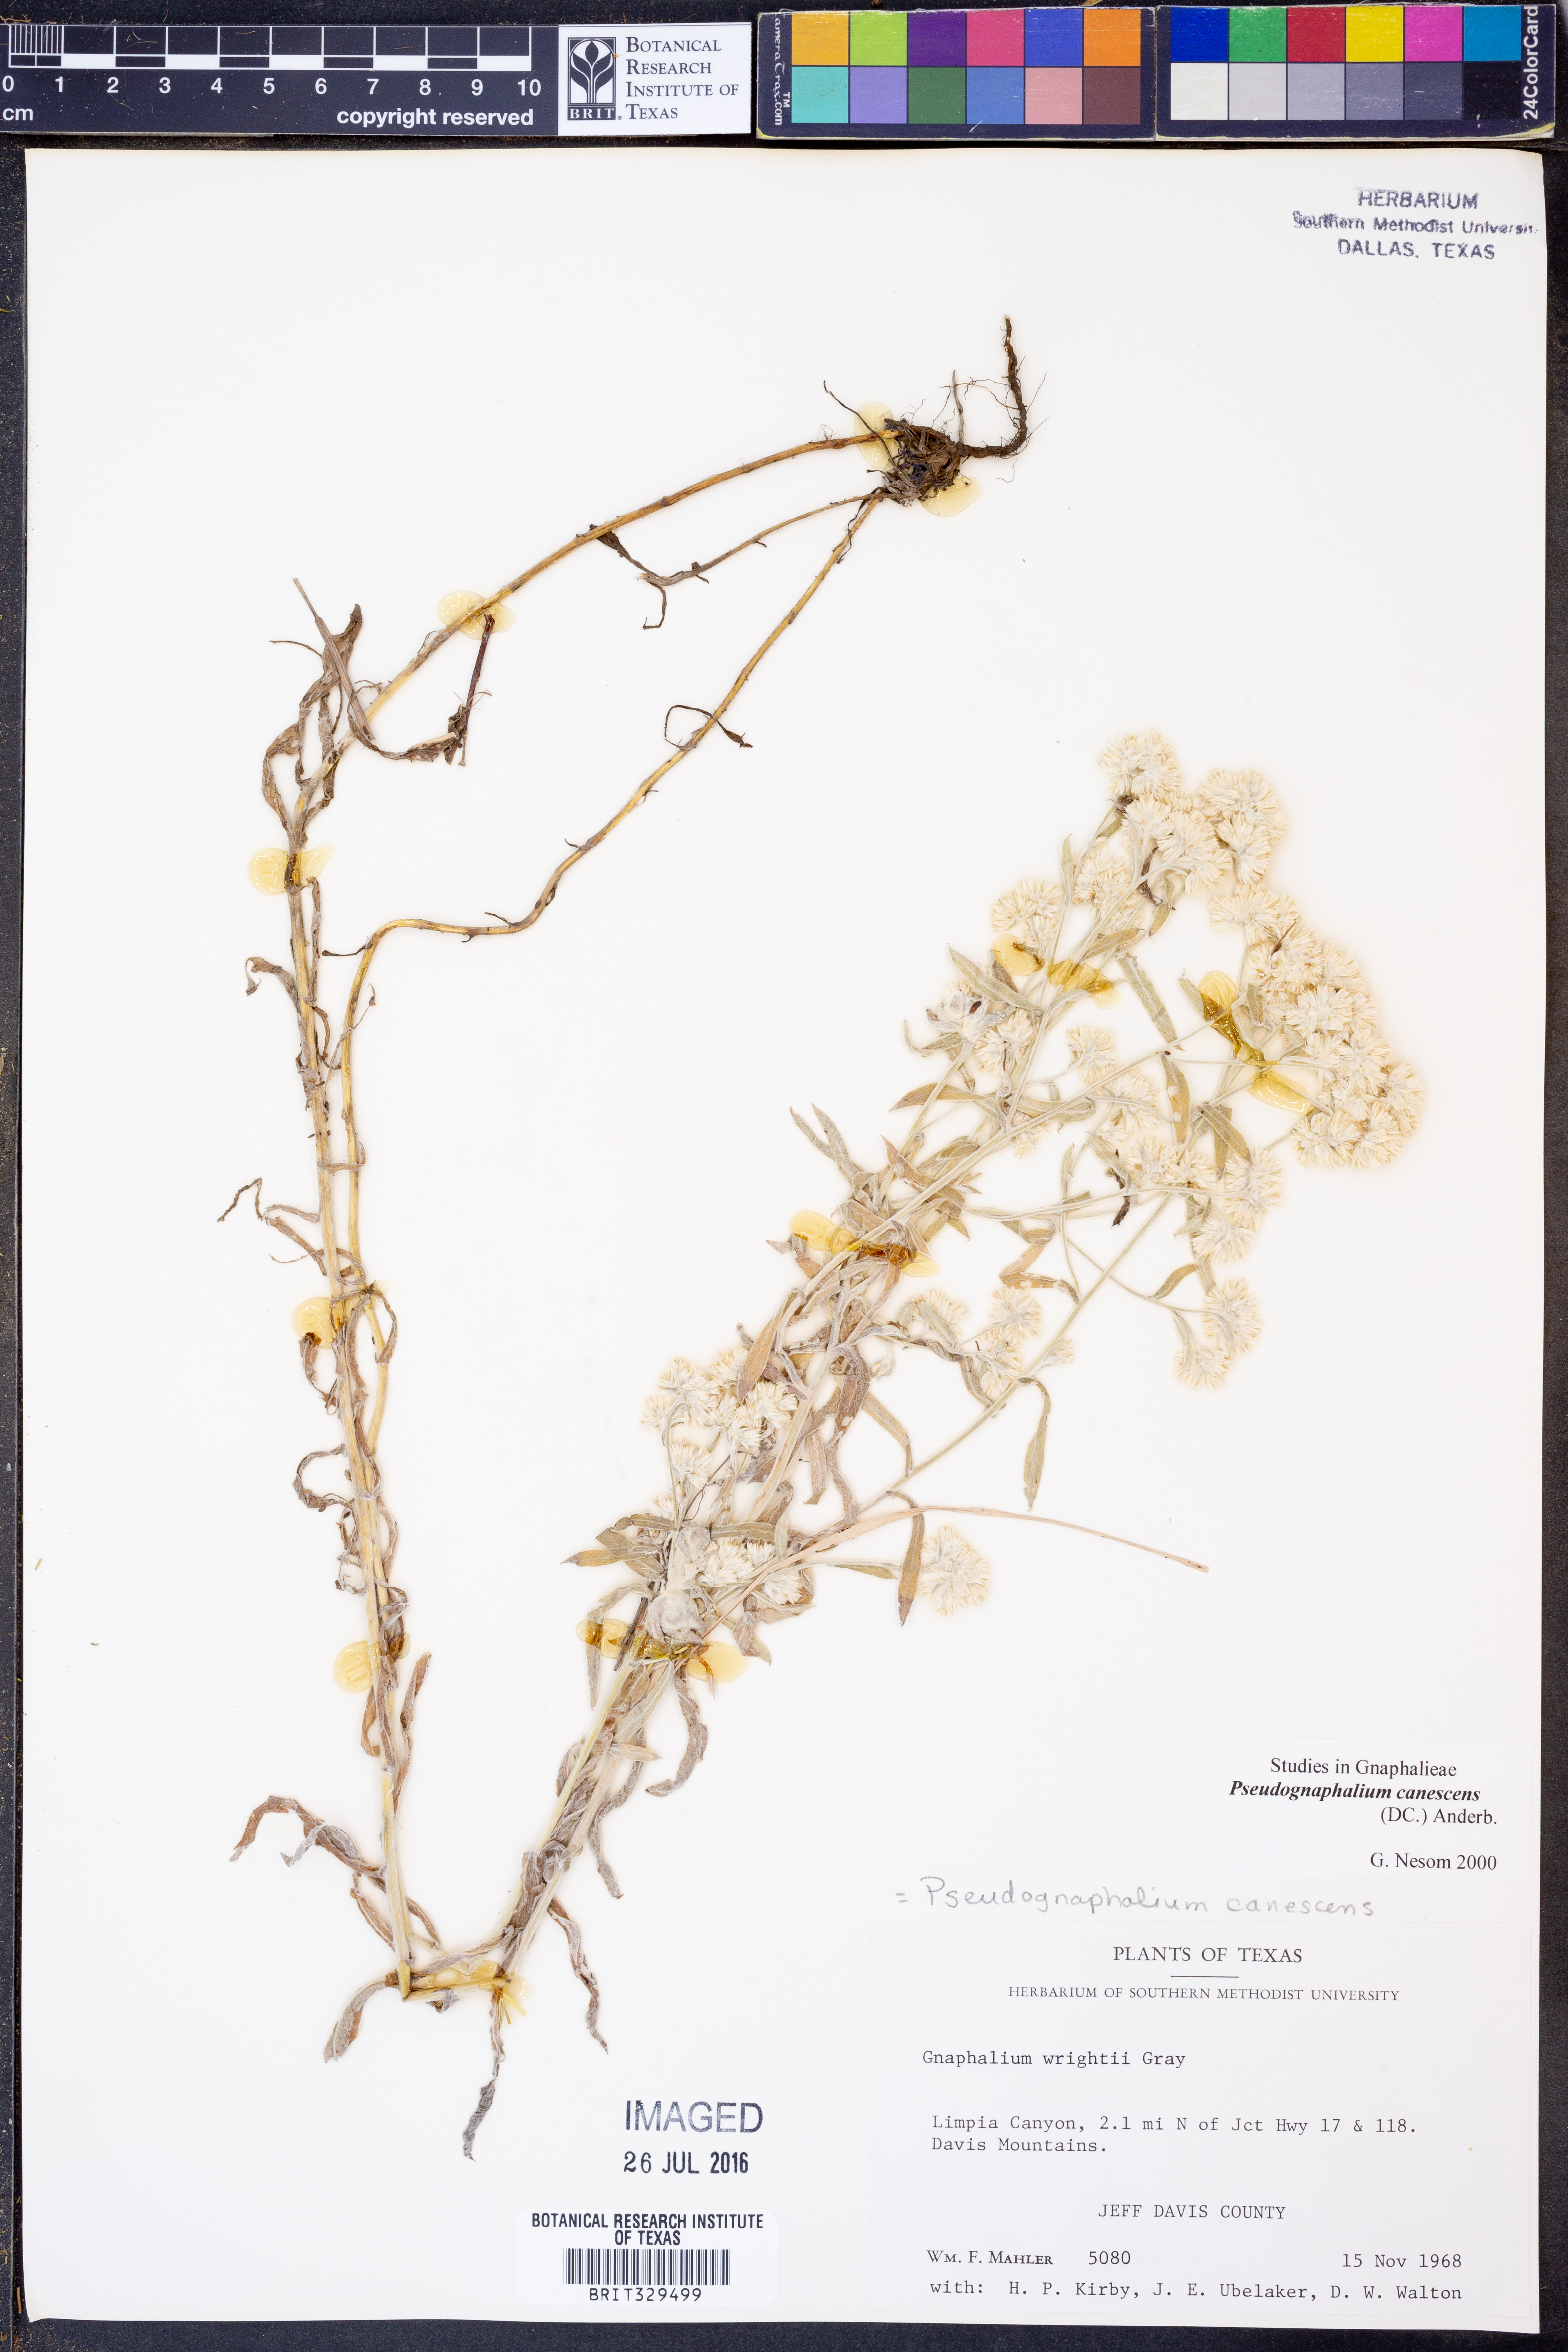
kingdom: Plantae
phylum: Tracheophyta
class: Magnoliopsida
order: Asterales
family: Asteraceae
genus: Pseudognaphalium
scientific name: Pseudognaphalium canescens
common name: Wright's rabbit-tobacco
